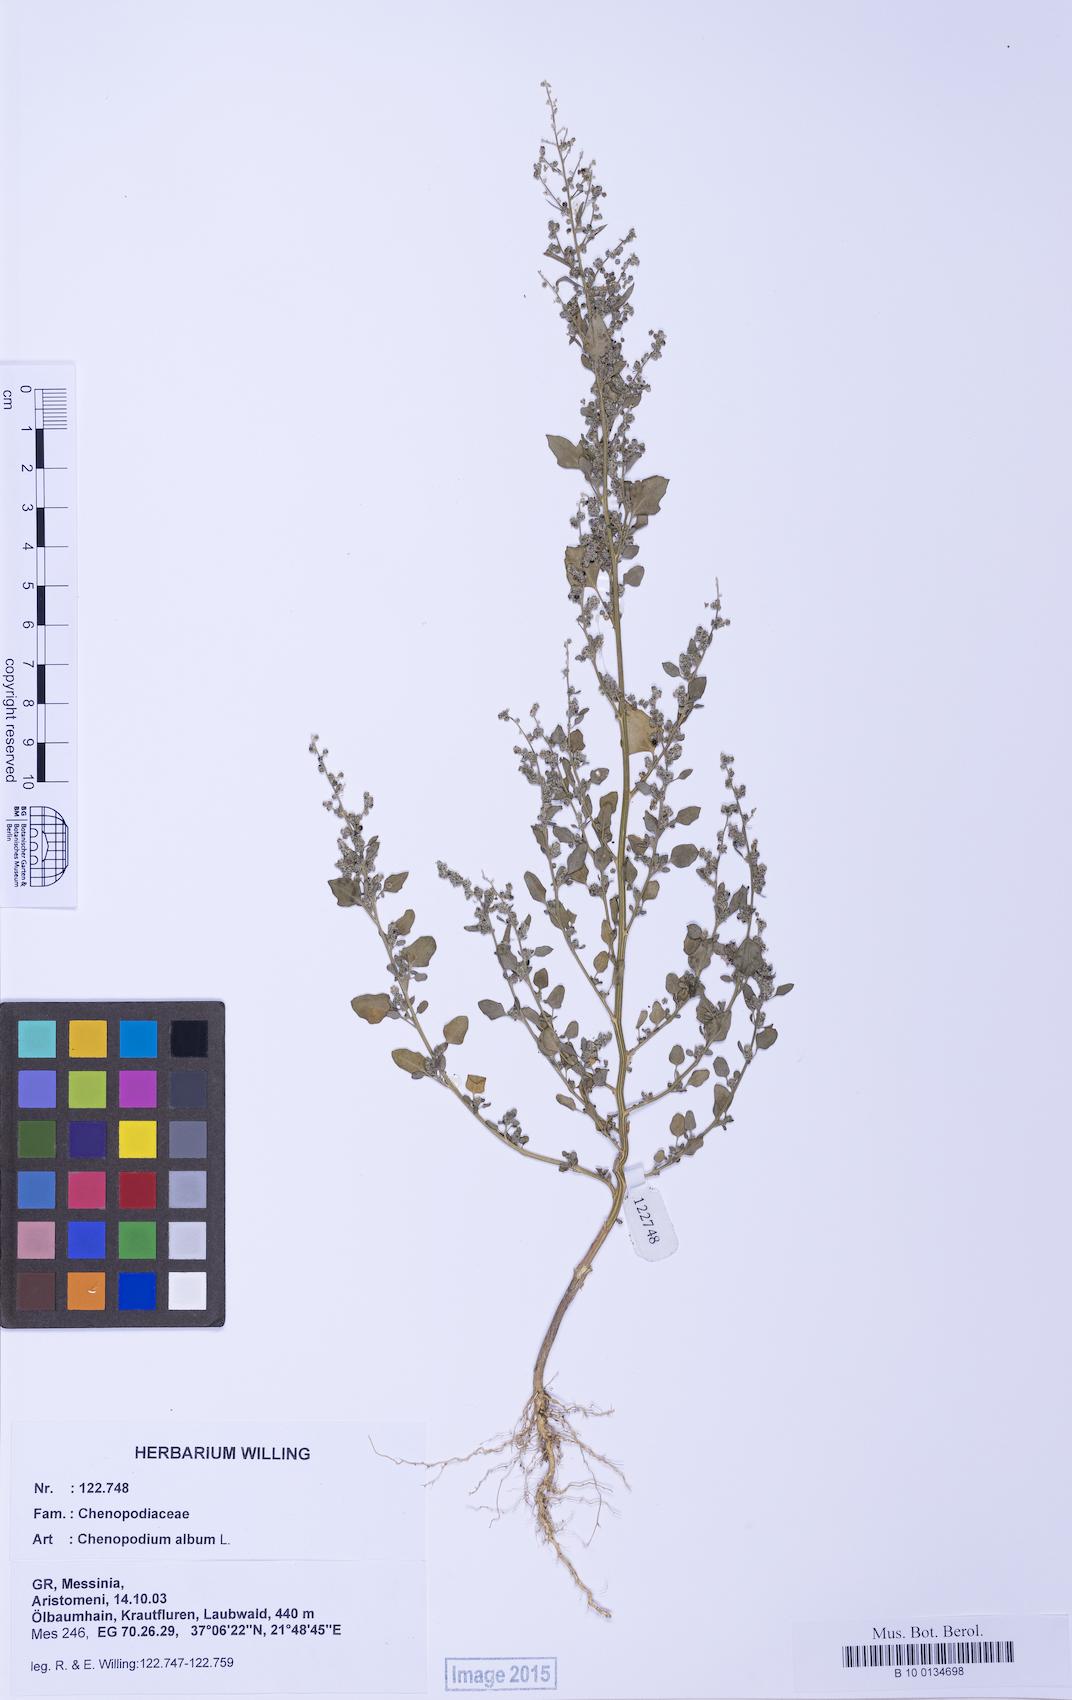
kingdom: Plantae
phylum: Tracheophyta
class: Magnoliopsida
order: Caryophyllales
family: Amaranthaceae
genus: Chenopodium
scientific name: Chenopodium striatiforme
